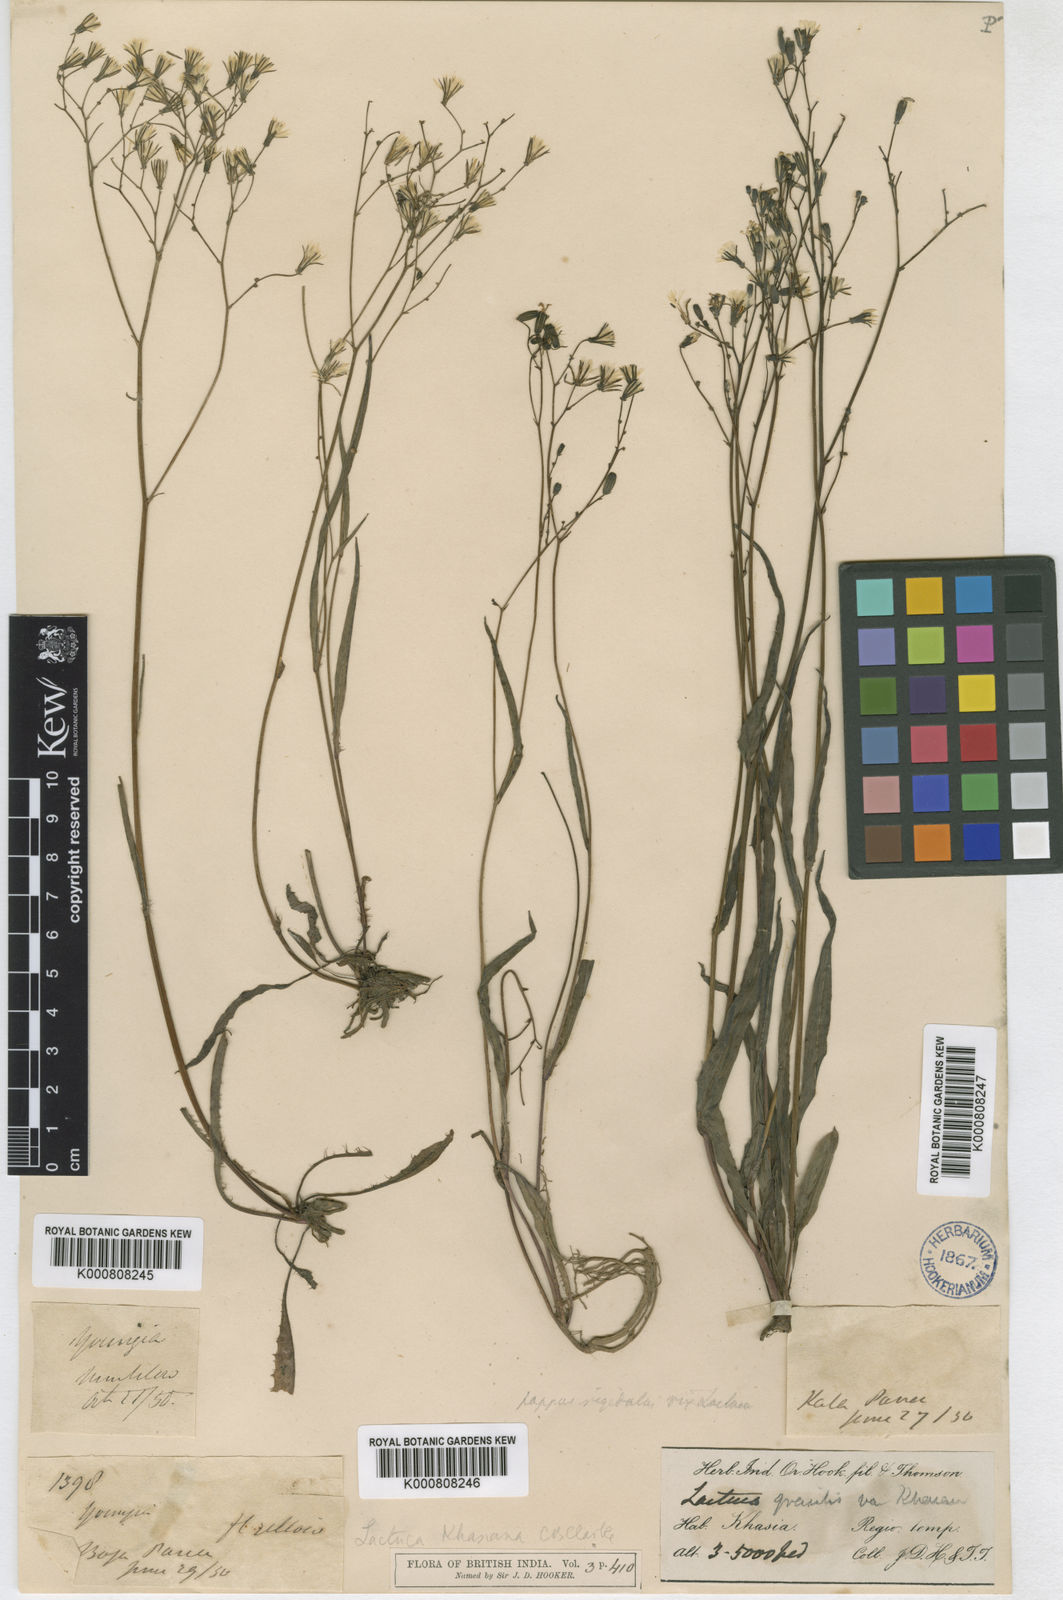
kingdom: Plantae
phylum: Tracheophyta
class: Magnoliopsida
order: Asterales
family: Asteraceae
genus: Ixeridium
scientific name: Ixeridium beauverdianum
